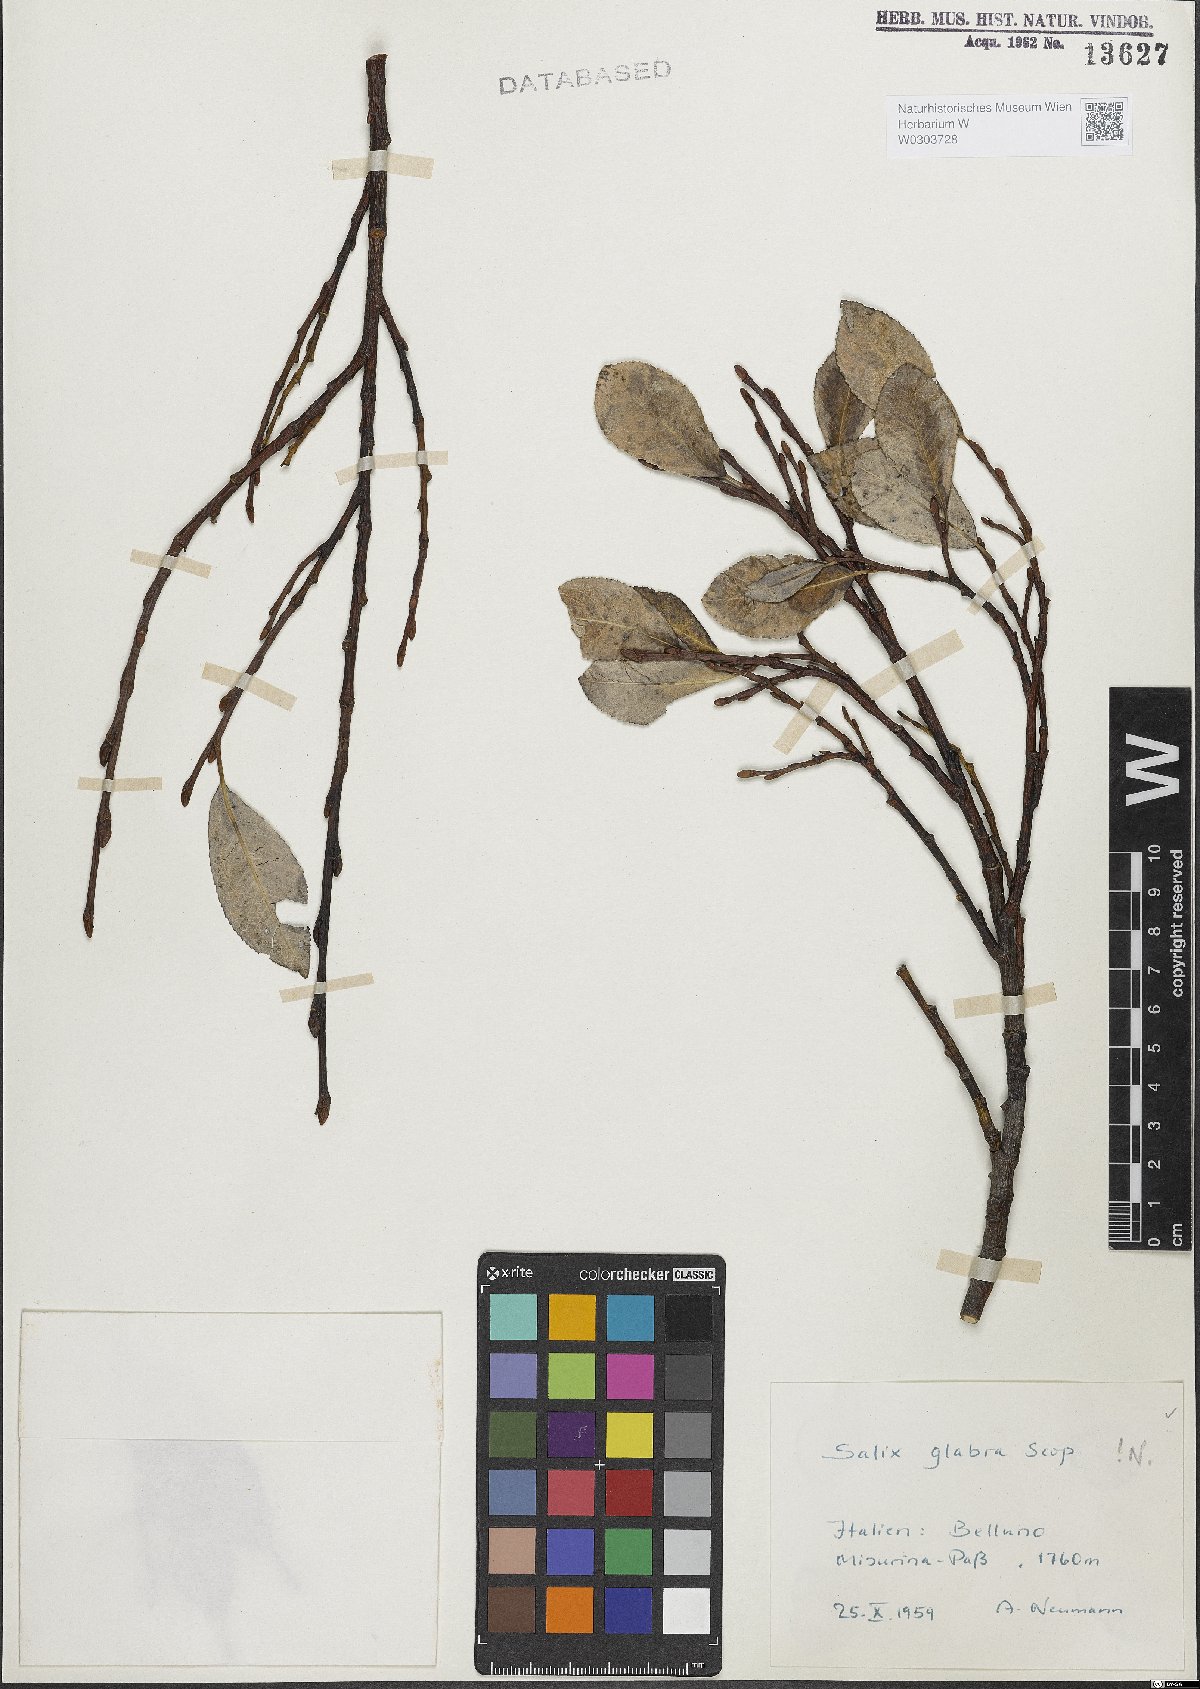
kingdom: Plantae
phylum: Tracheophyta
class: Magnoliopsida
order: Malpighiales
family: Salicaceae
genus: Salix
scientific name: Salix glabra
